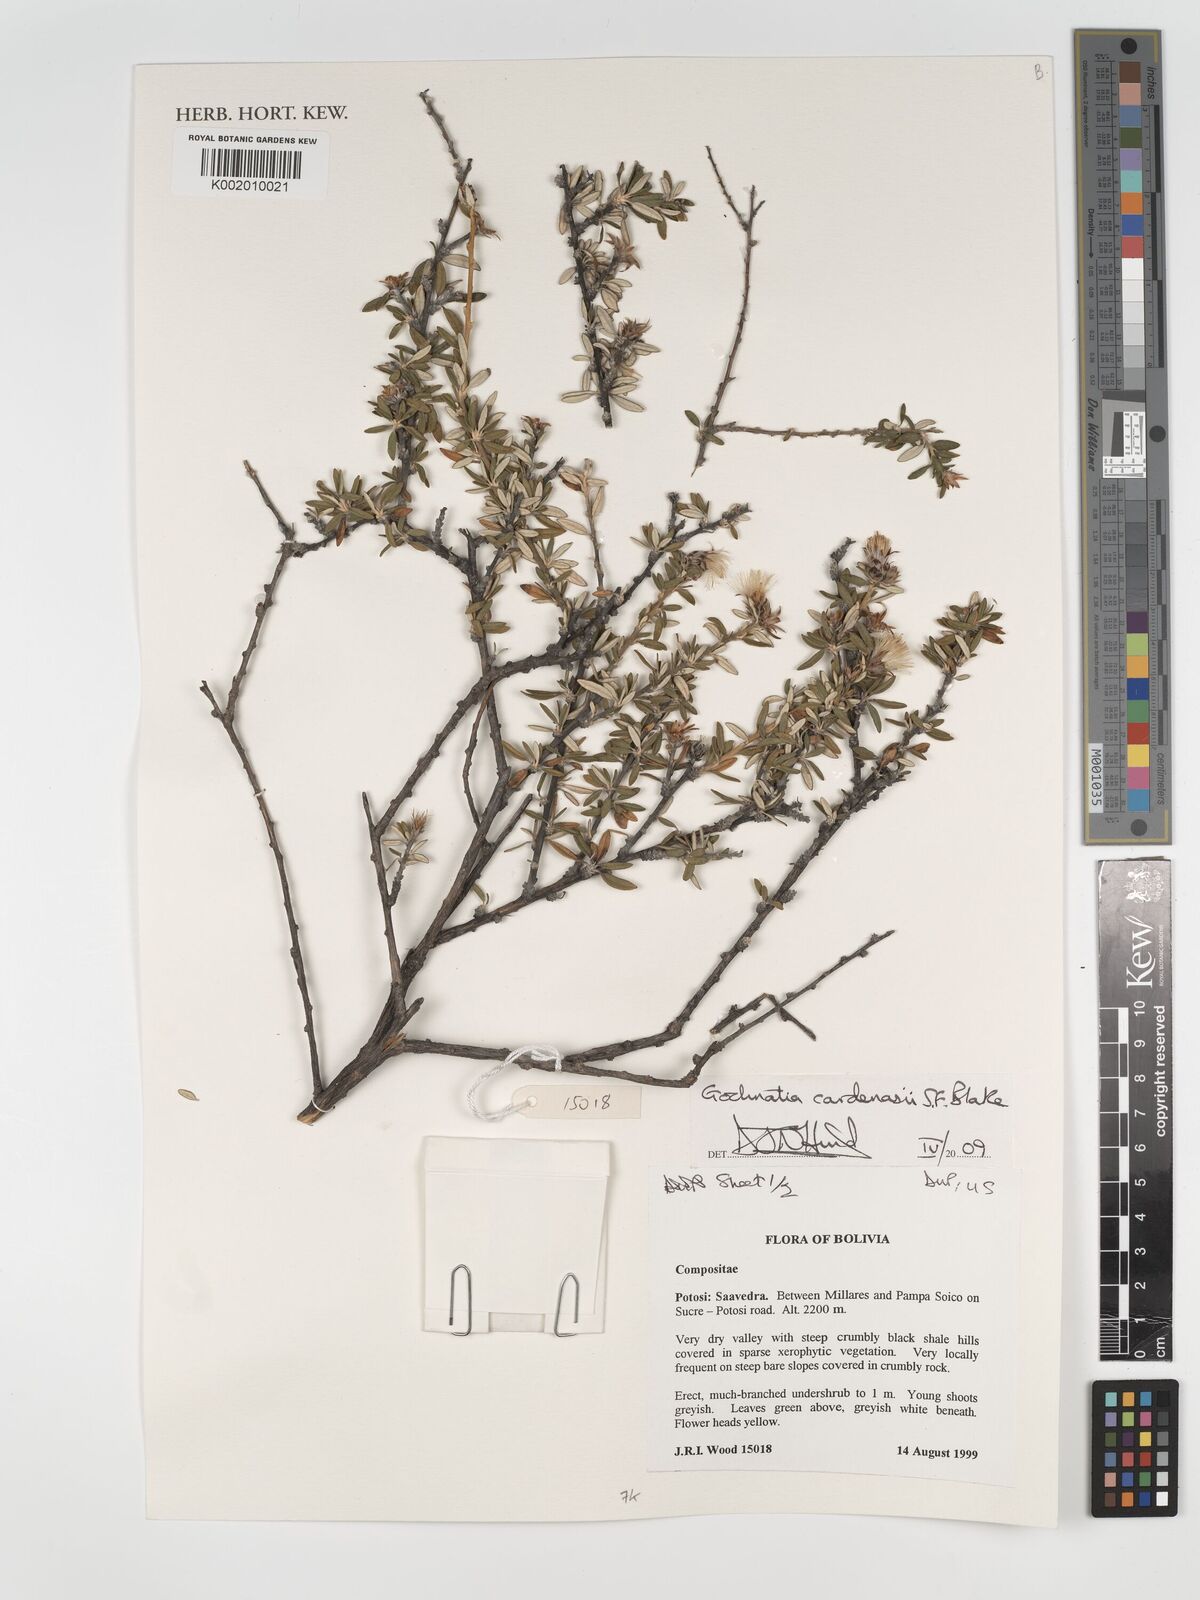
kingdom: Plantae
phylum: Tracheophyta
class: Magnoliopsida
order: Asterales
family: Asteraceae
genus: Gochnatia
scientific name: Gochnatia cardenasii
